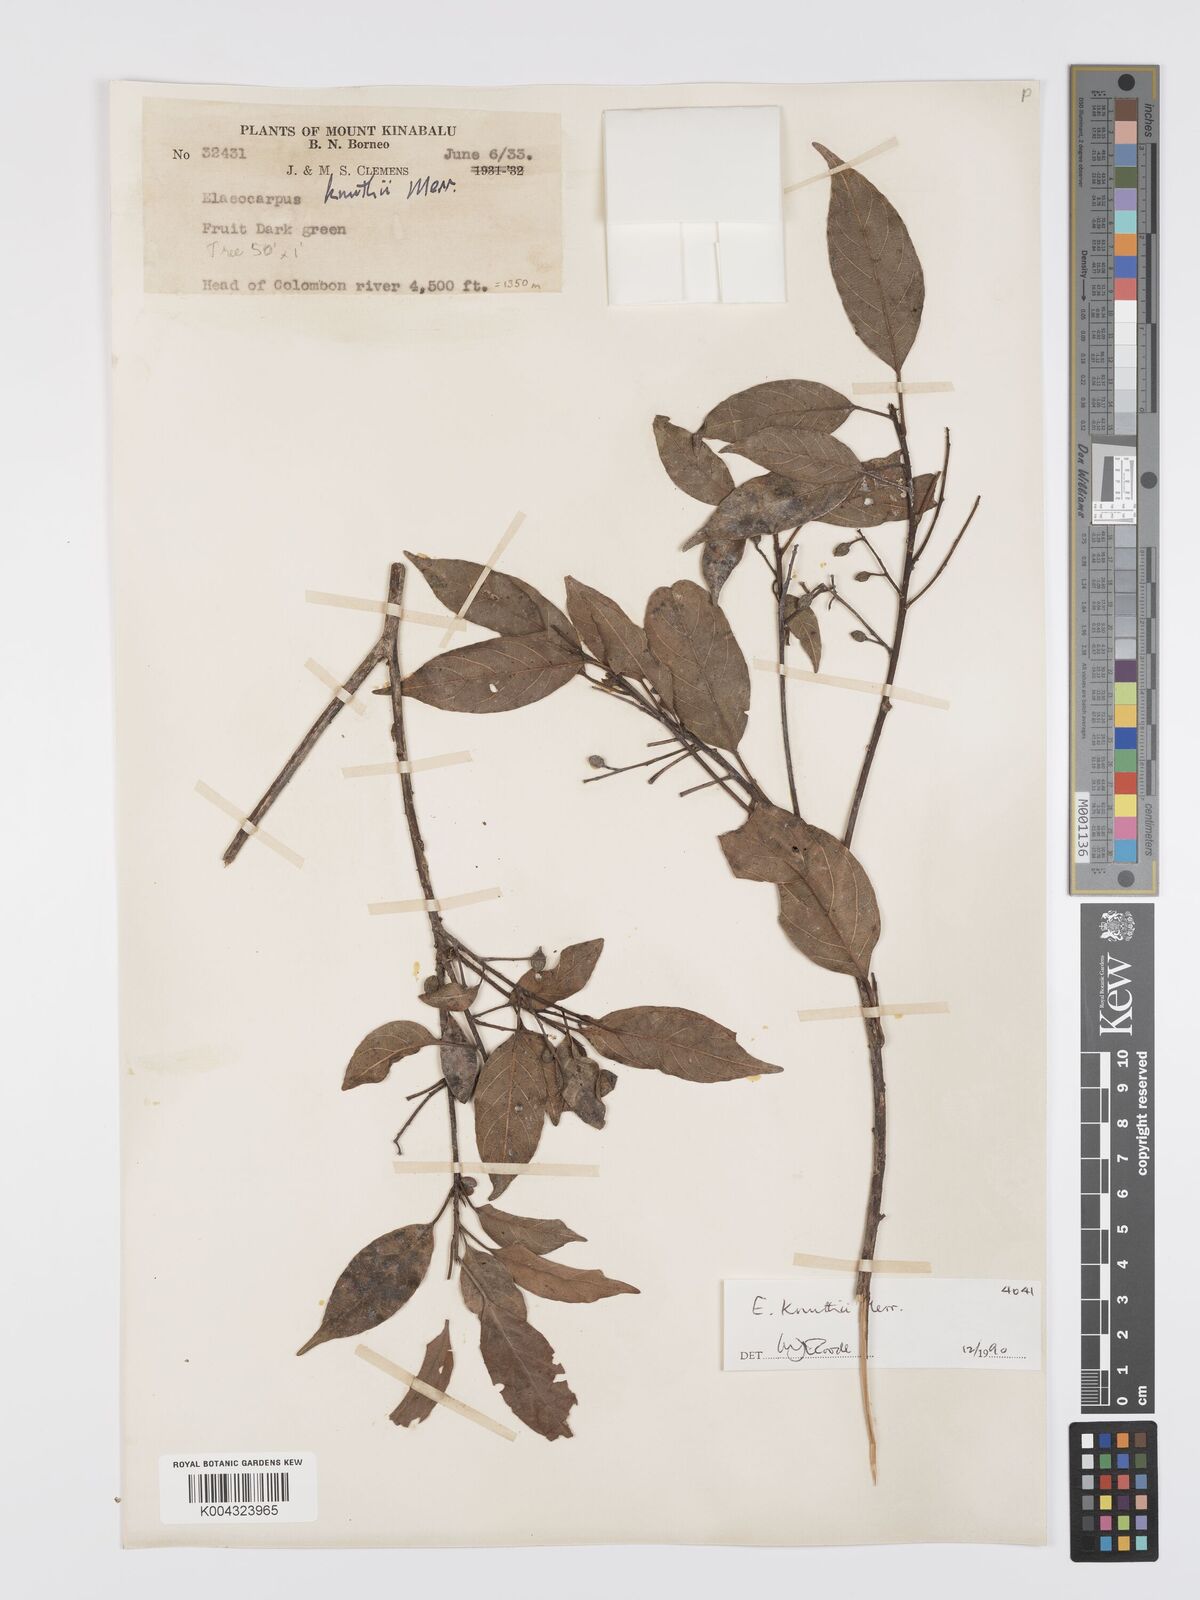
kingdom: Plantae
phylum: Tracheophyta
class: Magnoliopsida
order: Oxalidales
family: Elaeocarpaceae
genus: Elaeocarpus
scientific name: Elaeocarpus knuthii
